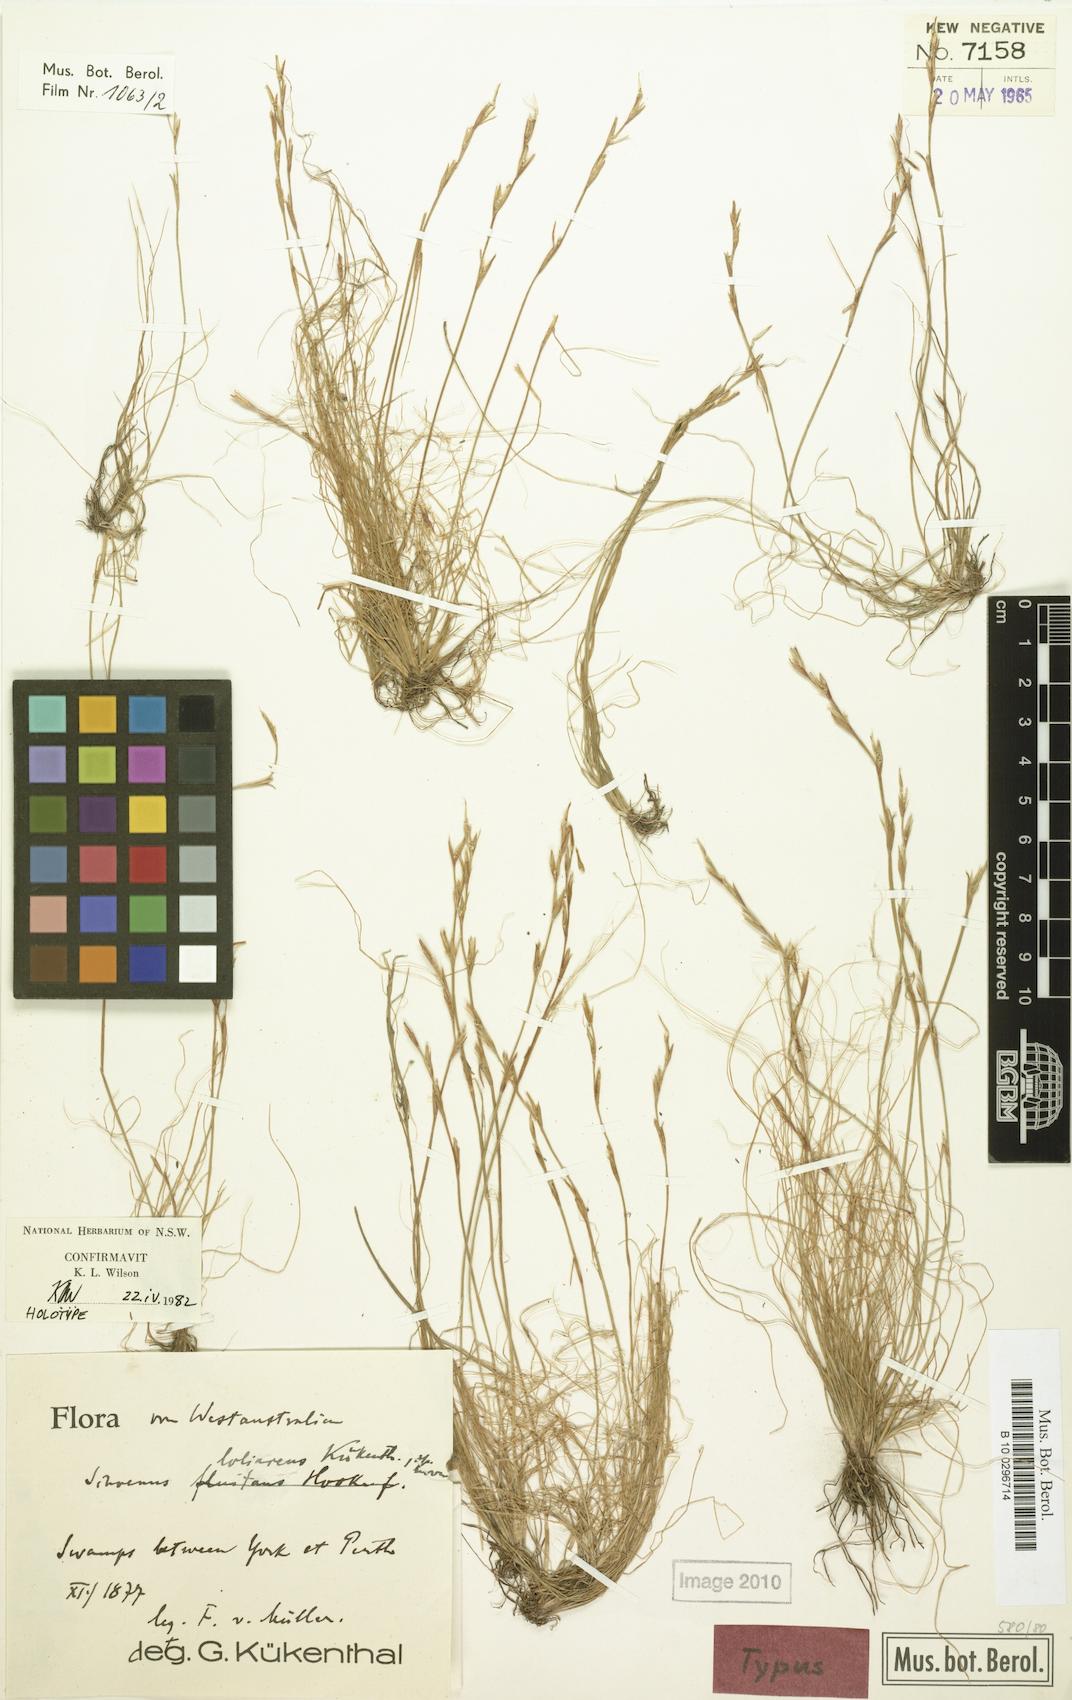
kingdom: Plantae
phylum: Tracheophyta
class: Liliopsida
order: Poales
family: Cyperaceae
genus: Schoenus
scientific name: Schoenus loliaceus
